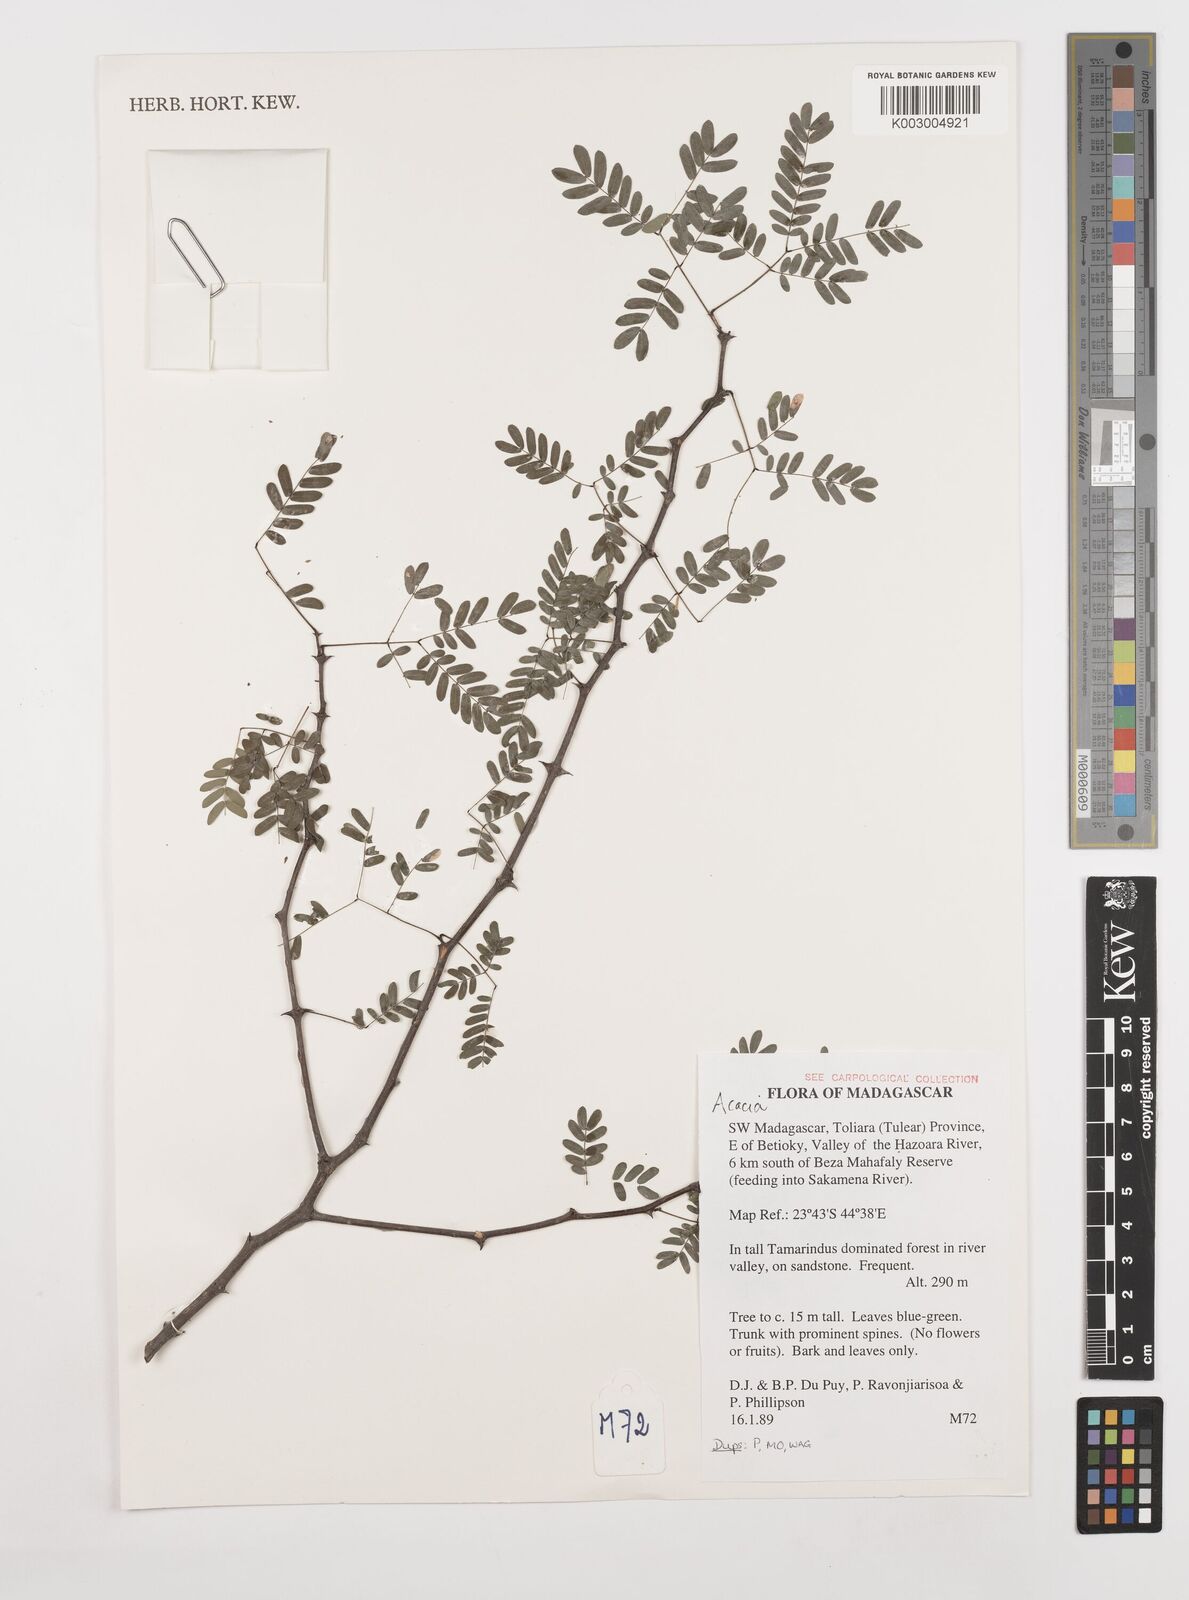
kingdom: Plantae
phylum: Tracheophyta
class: Magnoliopsida
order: Fabales
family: Fabaceae
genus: Acacia
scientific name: Acacia
